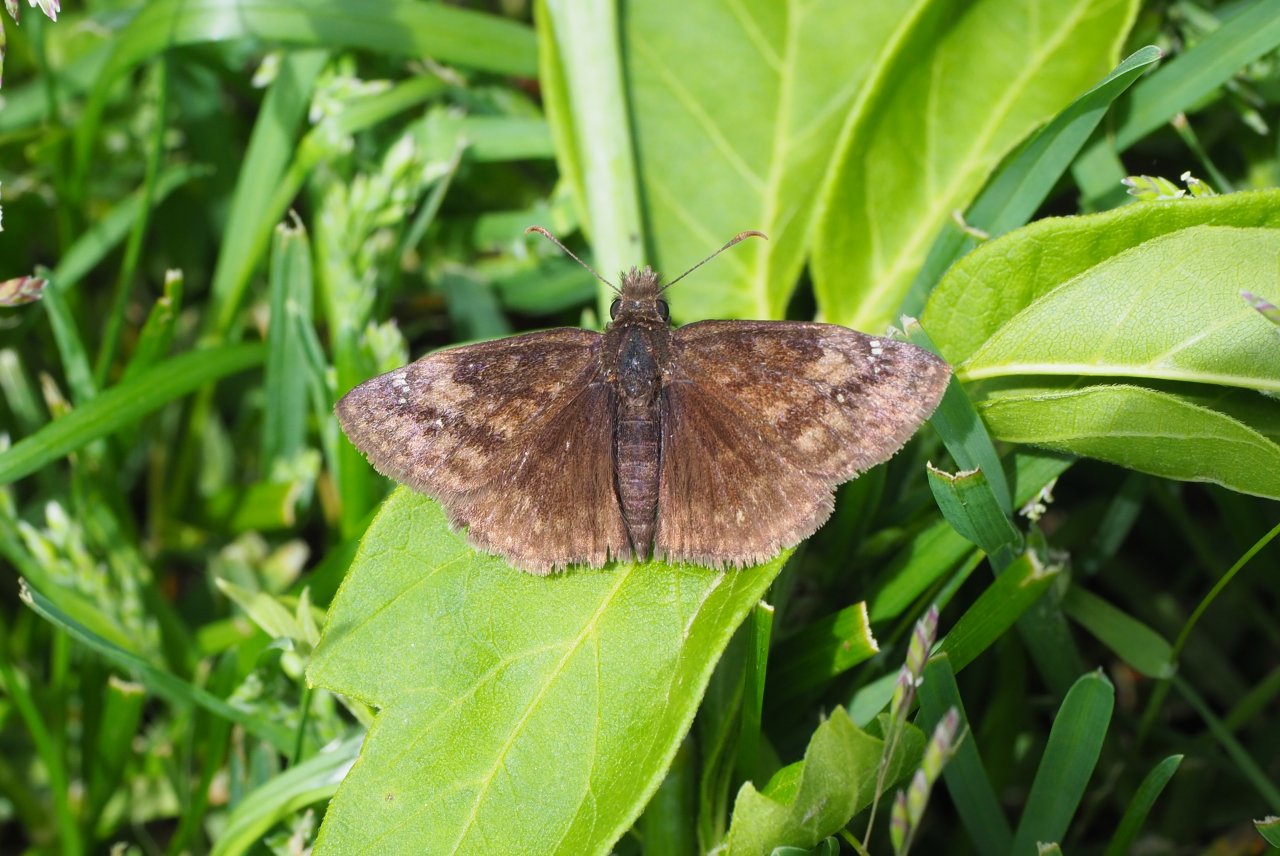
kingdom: Animalia
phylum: Arthropoda
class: Insecta
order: Lepidoptera
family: Hesperiidae
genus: Gesta
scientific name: Gesta
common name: Wild Indigo Duskywing
